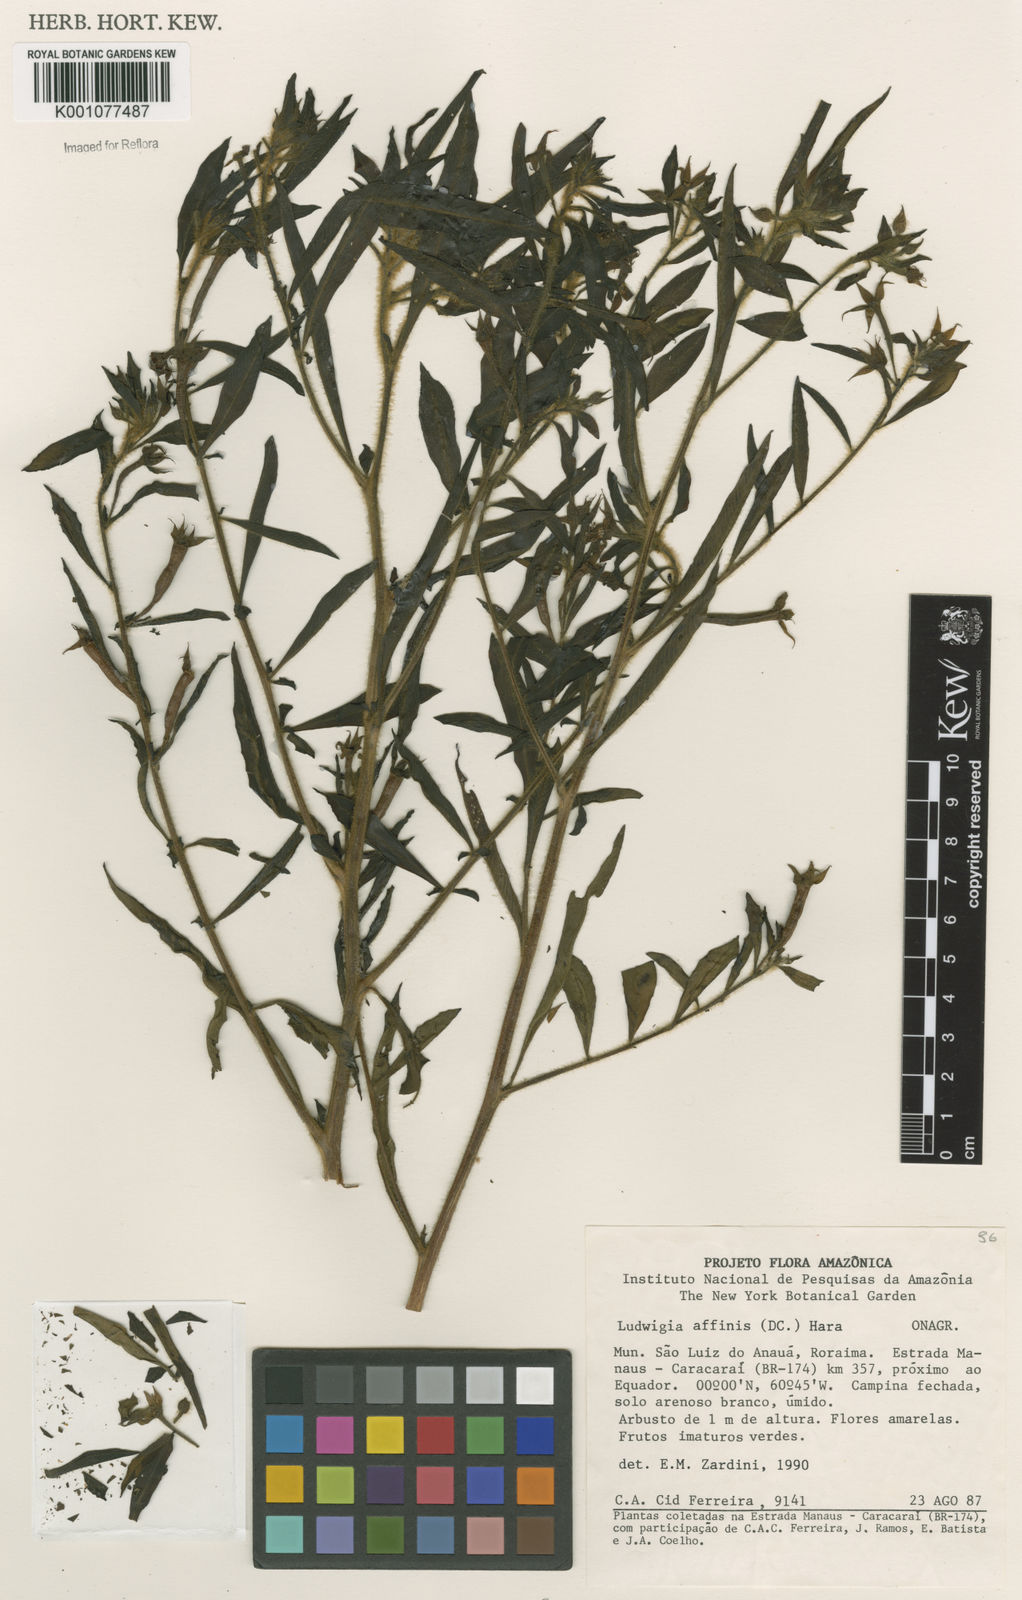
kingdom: Plantae
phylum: Tracheophyta
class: Magnoliopsida
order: Myrtales
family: Onagraceae
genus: Ludwigia
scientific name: Ludwigia affinis
